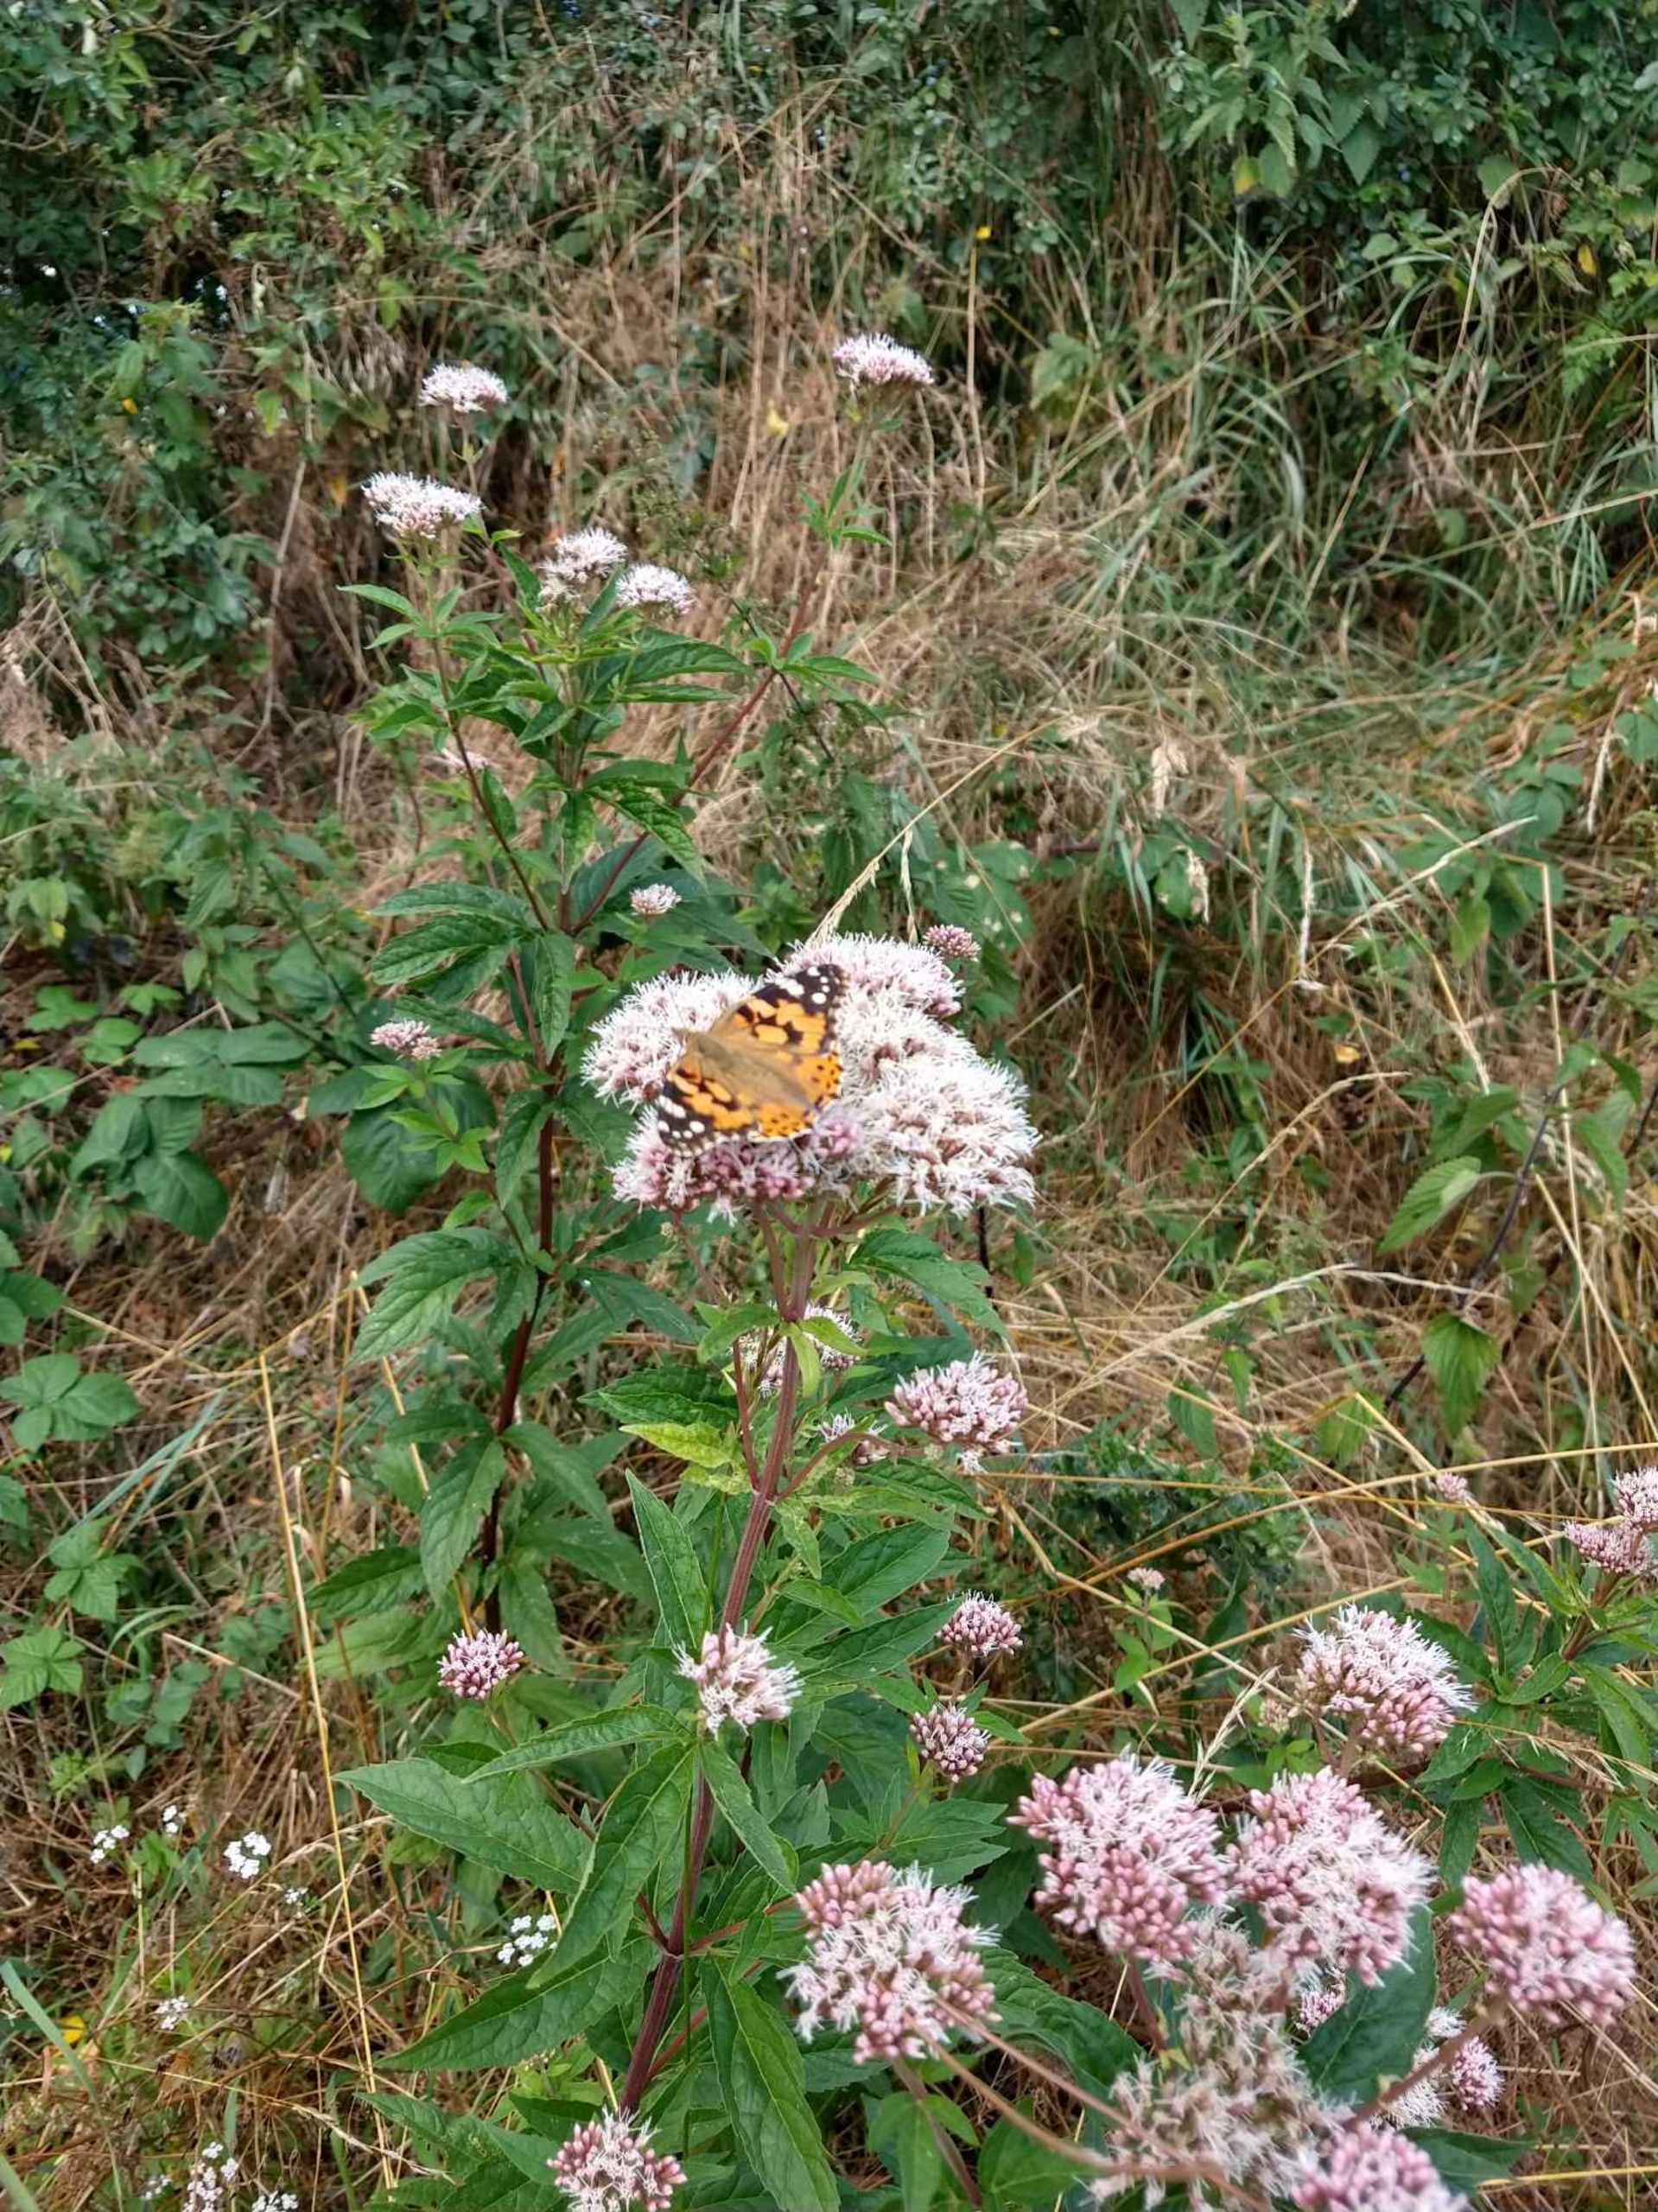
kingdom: Animalia
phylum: Arthropoda
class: Insecta
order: Lepidoptera
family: Nymphalidae
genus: Vanessa
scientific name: Vanessa cardui
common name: Tidselsommerfugl
